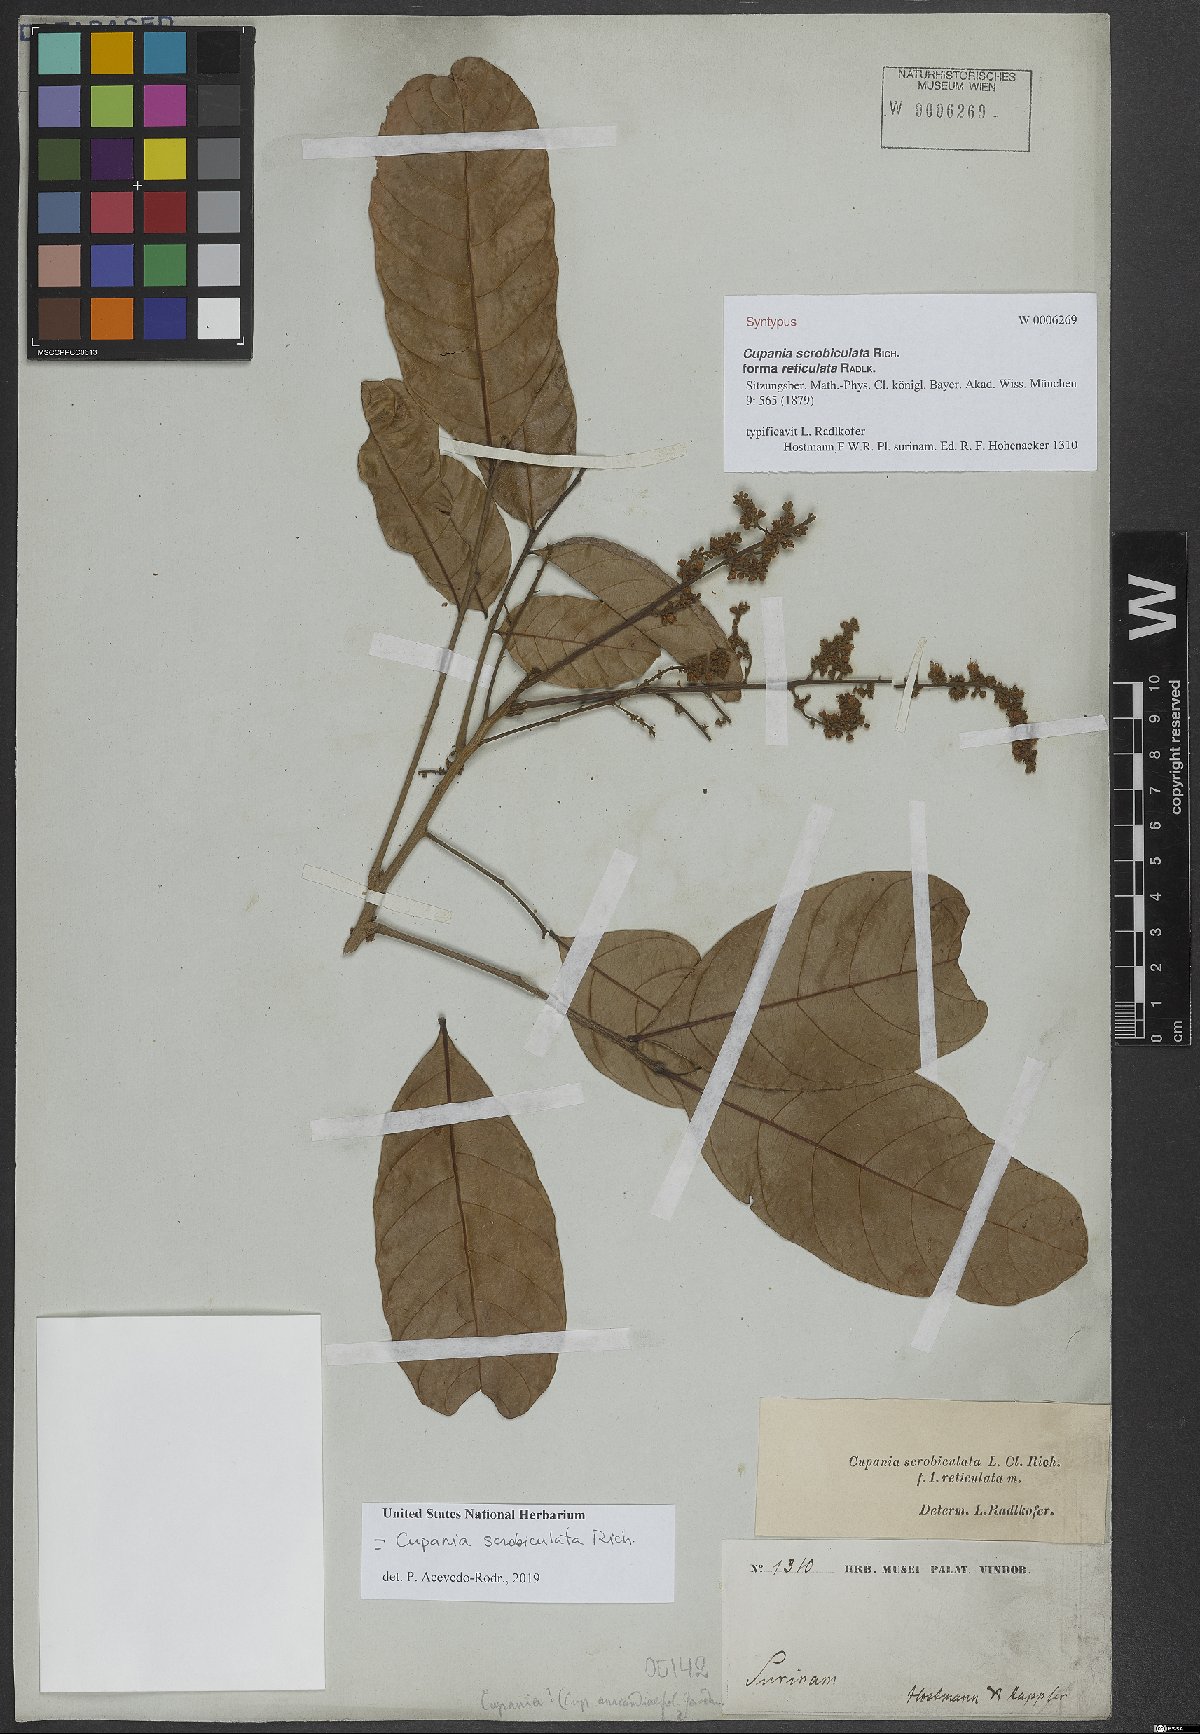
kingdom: Plantae
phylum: Tracheophyta
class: Magnoliopsida
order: Sapindales
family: Sapindaceae
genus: Cupania
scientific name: Cupania scrobiculata
